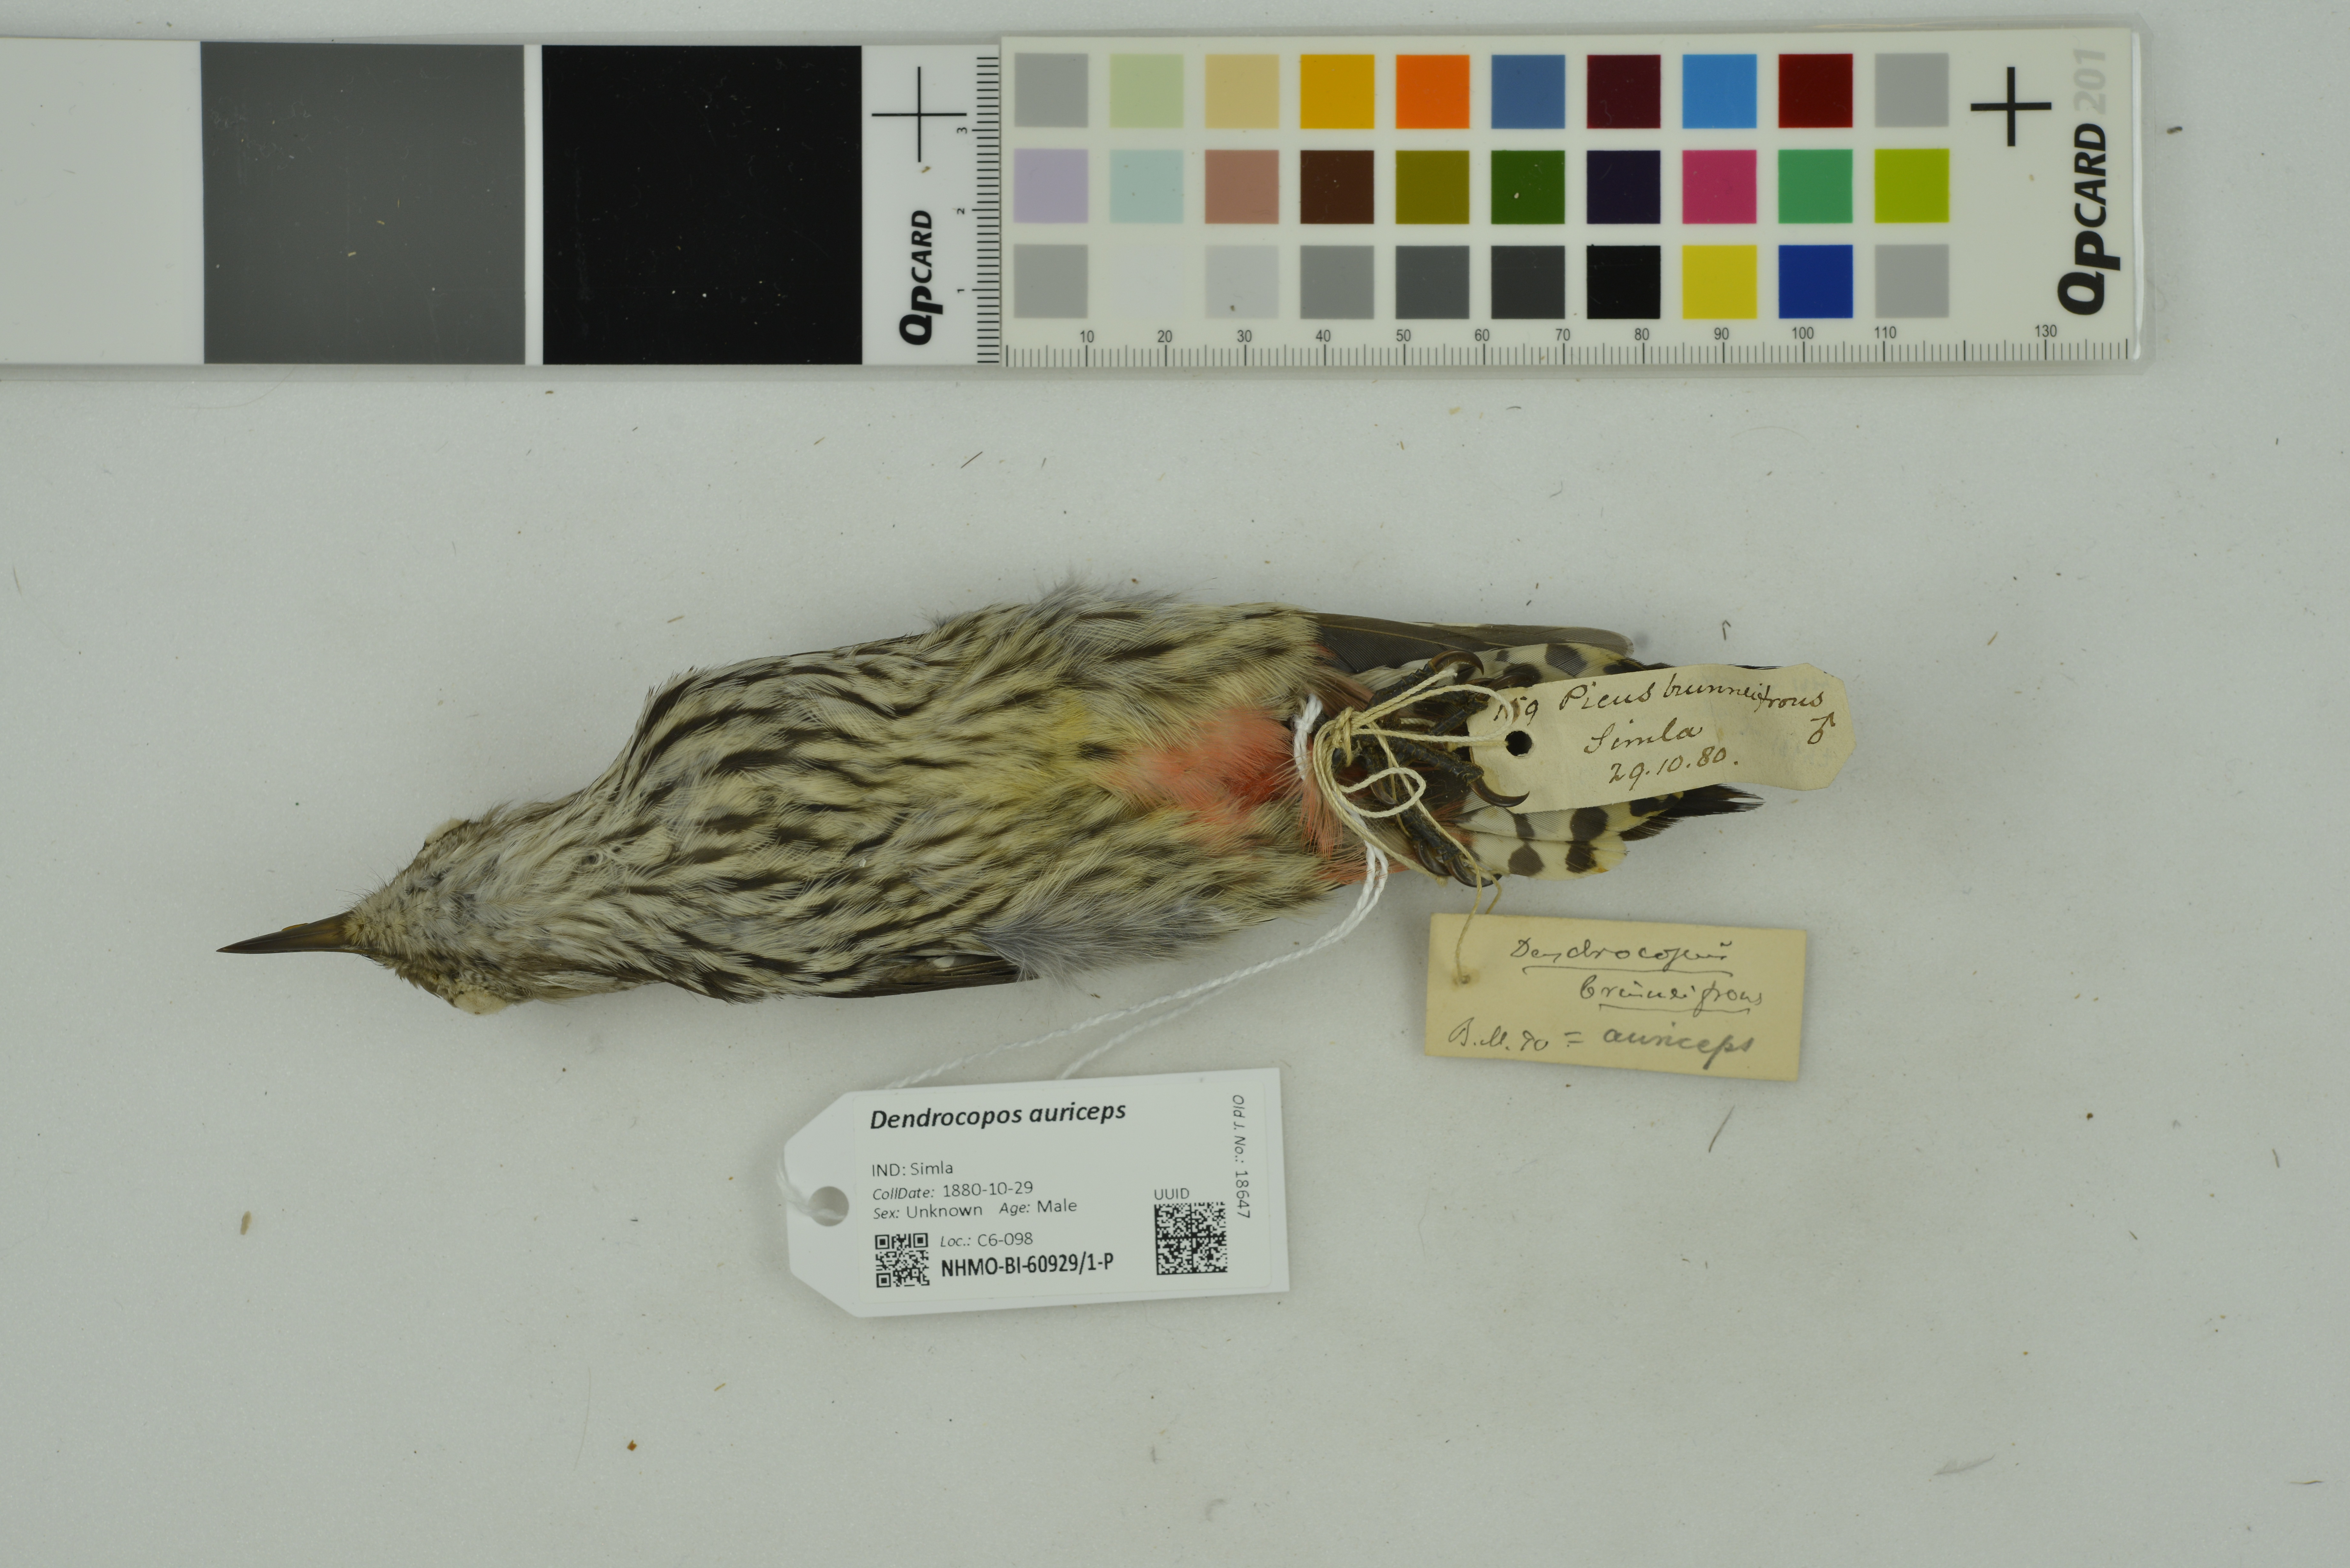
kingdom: Animalia
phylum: Chordata
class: Aves
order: Piciformes
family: Picidae
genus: Dendrocoptes
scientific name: Dendrocoptes auriceps
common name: Brown-fronted woodpecker
